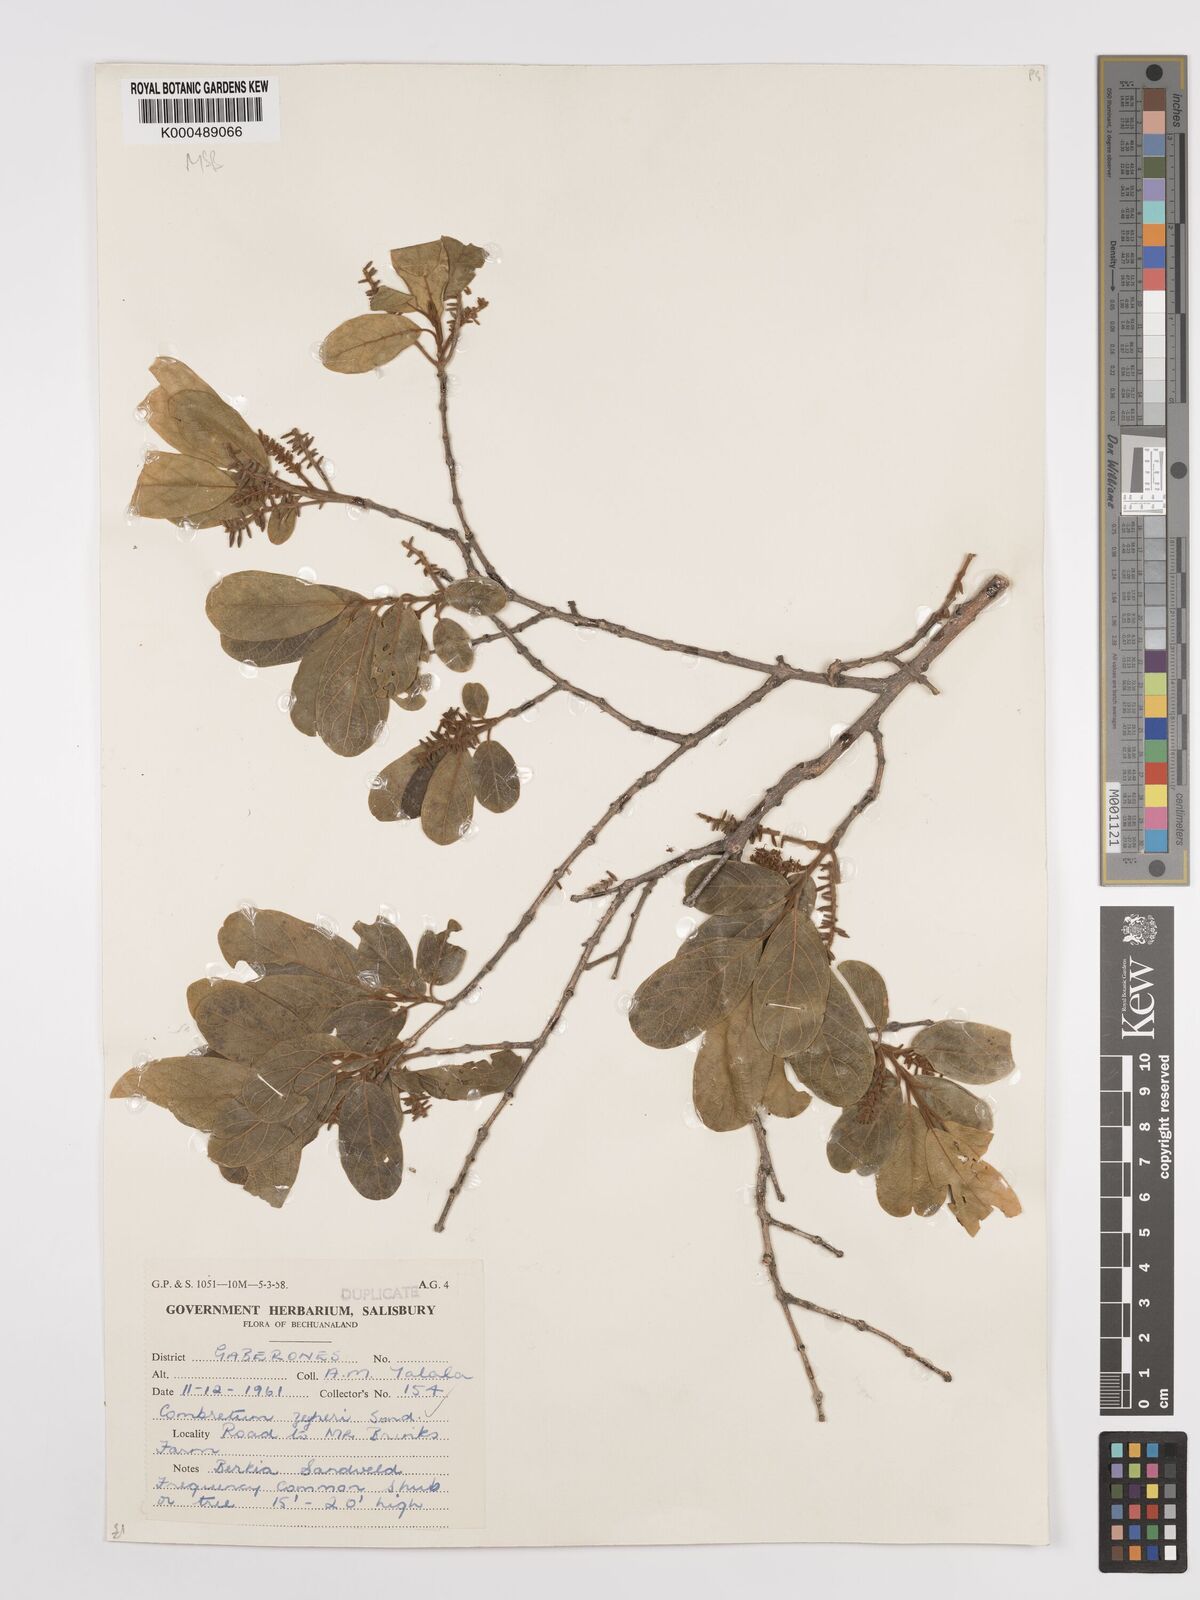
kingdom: Plantae
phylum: Tracheophyta
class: Magnoliopsida
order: Myrtales
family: Combretaceae
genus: Combretum
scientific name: Combretum zeyheri
